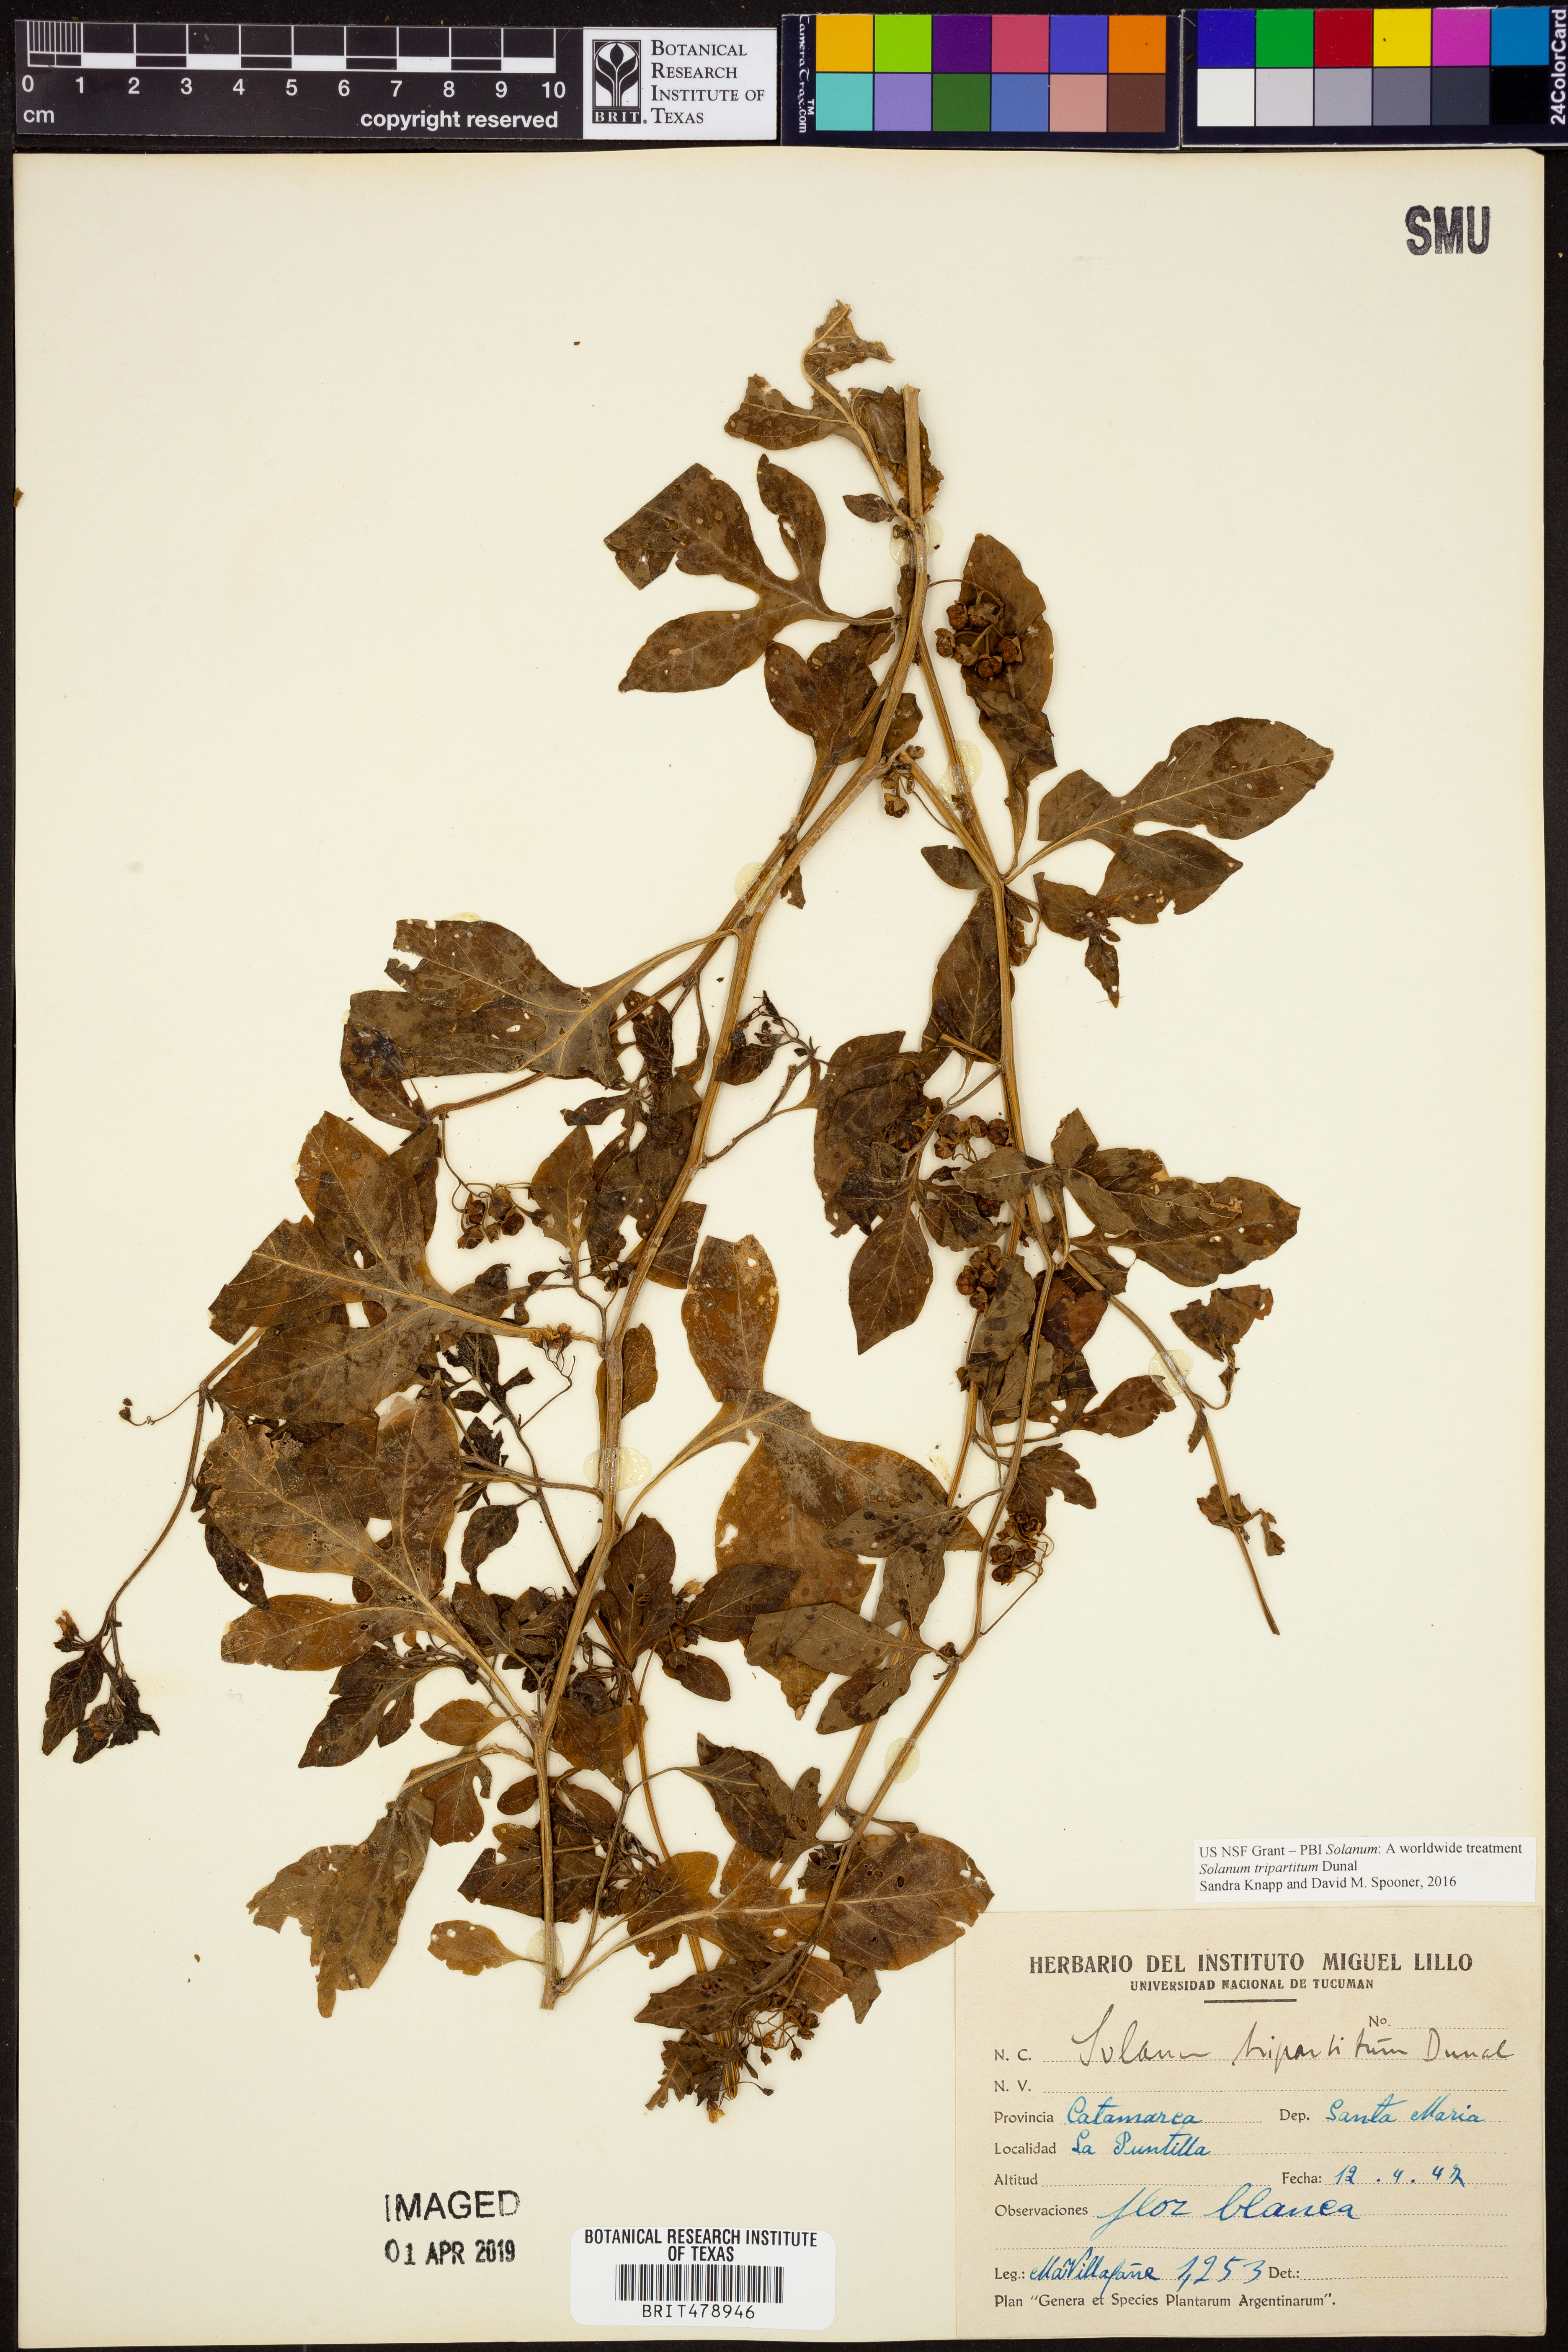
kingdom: Plantae
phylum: Tracheophyta
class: Magnoliopsida
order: Solanales
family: Solanaceae
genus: Solanum
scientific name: Solanum tripartitum
